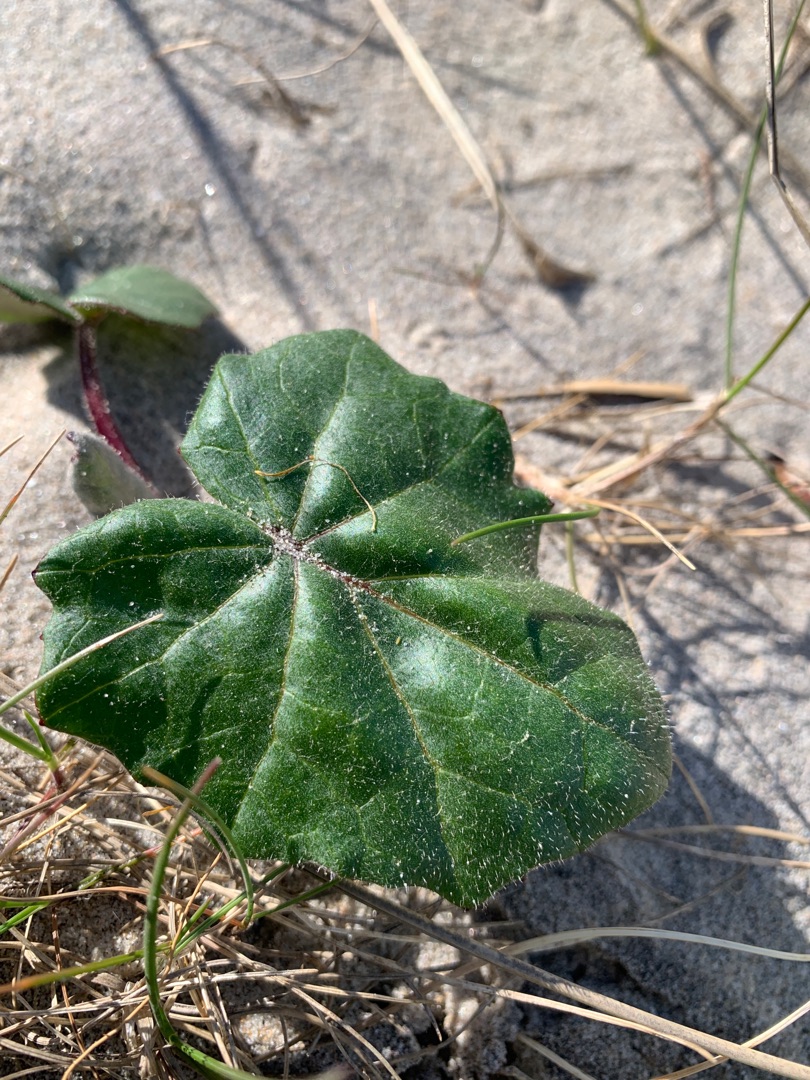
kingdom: Plantae
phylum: Tracheophyta
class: Magnoliopsida
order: Asterales
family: Asteraceae
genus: Tussilago
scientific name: Tussilago farfara
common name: Følfod
